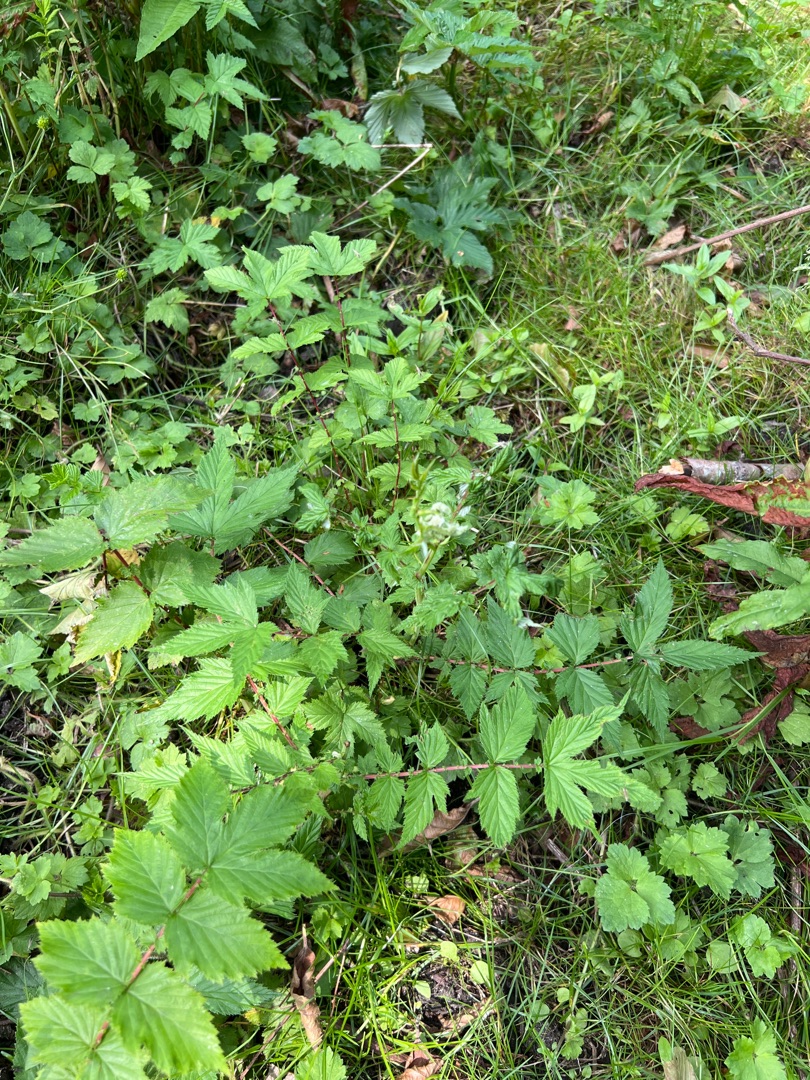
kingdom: Plantae
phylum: Tracheophyta
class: Magnoliopsida
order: Rosales
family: Rosaceae
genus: Filipendula
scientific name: Filipendula ulmaria
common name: Almindelig mjødurt
